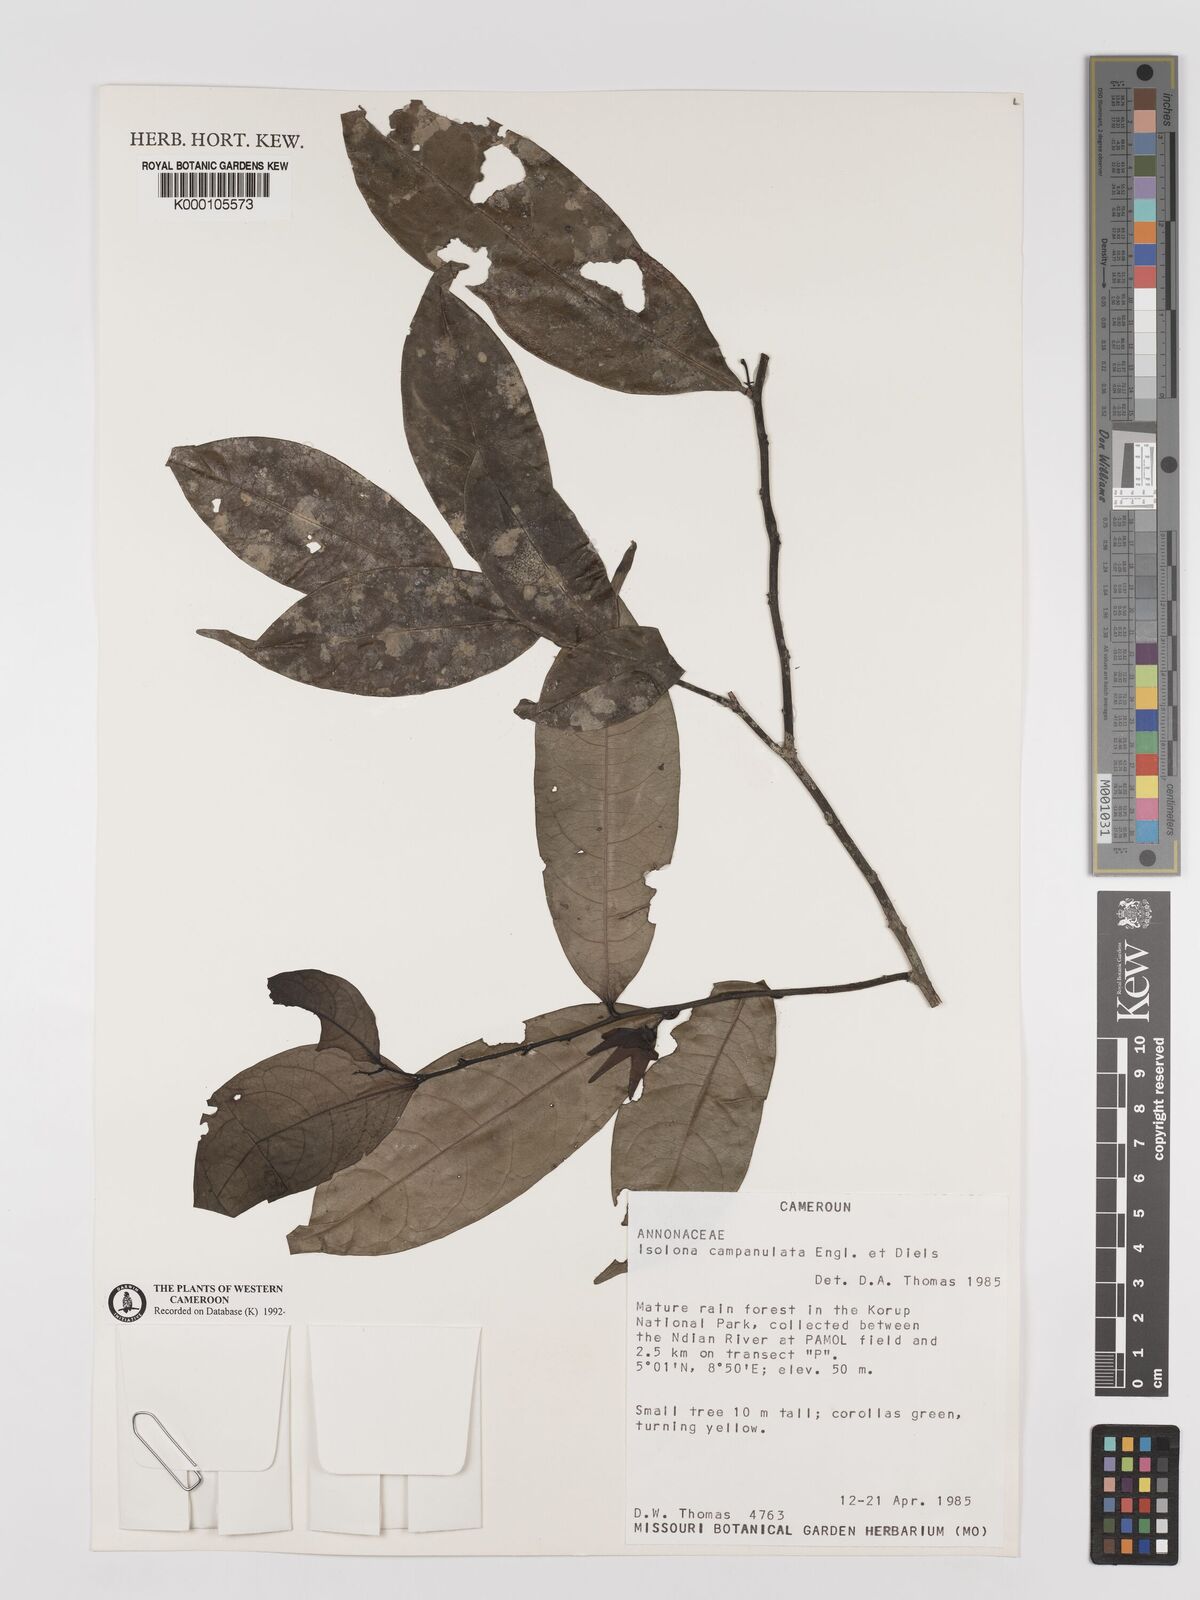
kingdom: Plantae
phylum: Tracheophyta
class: Magnoliopsida
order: Magnoliales
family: Annonaceae
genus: Isolona
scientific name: Isolona campanulata
